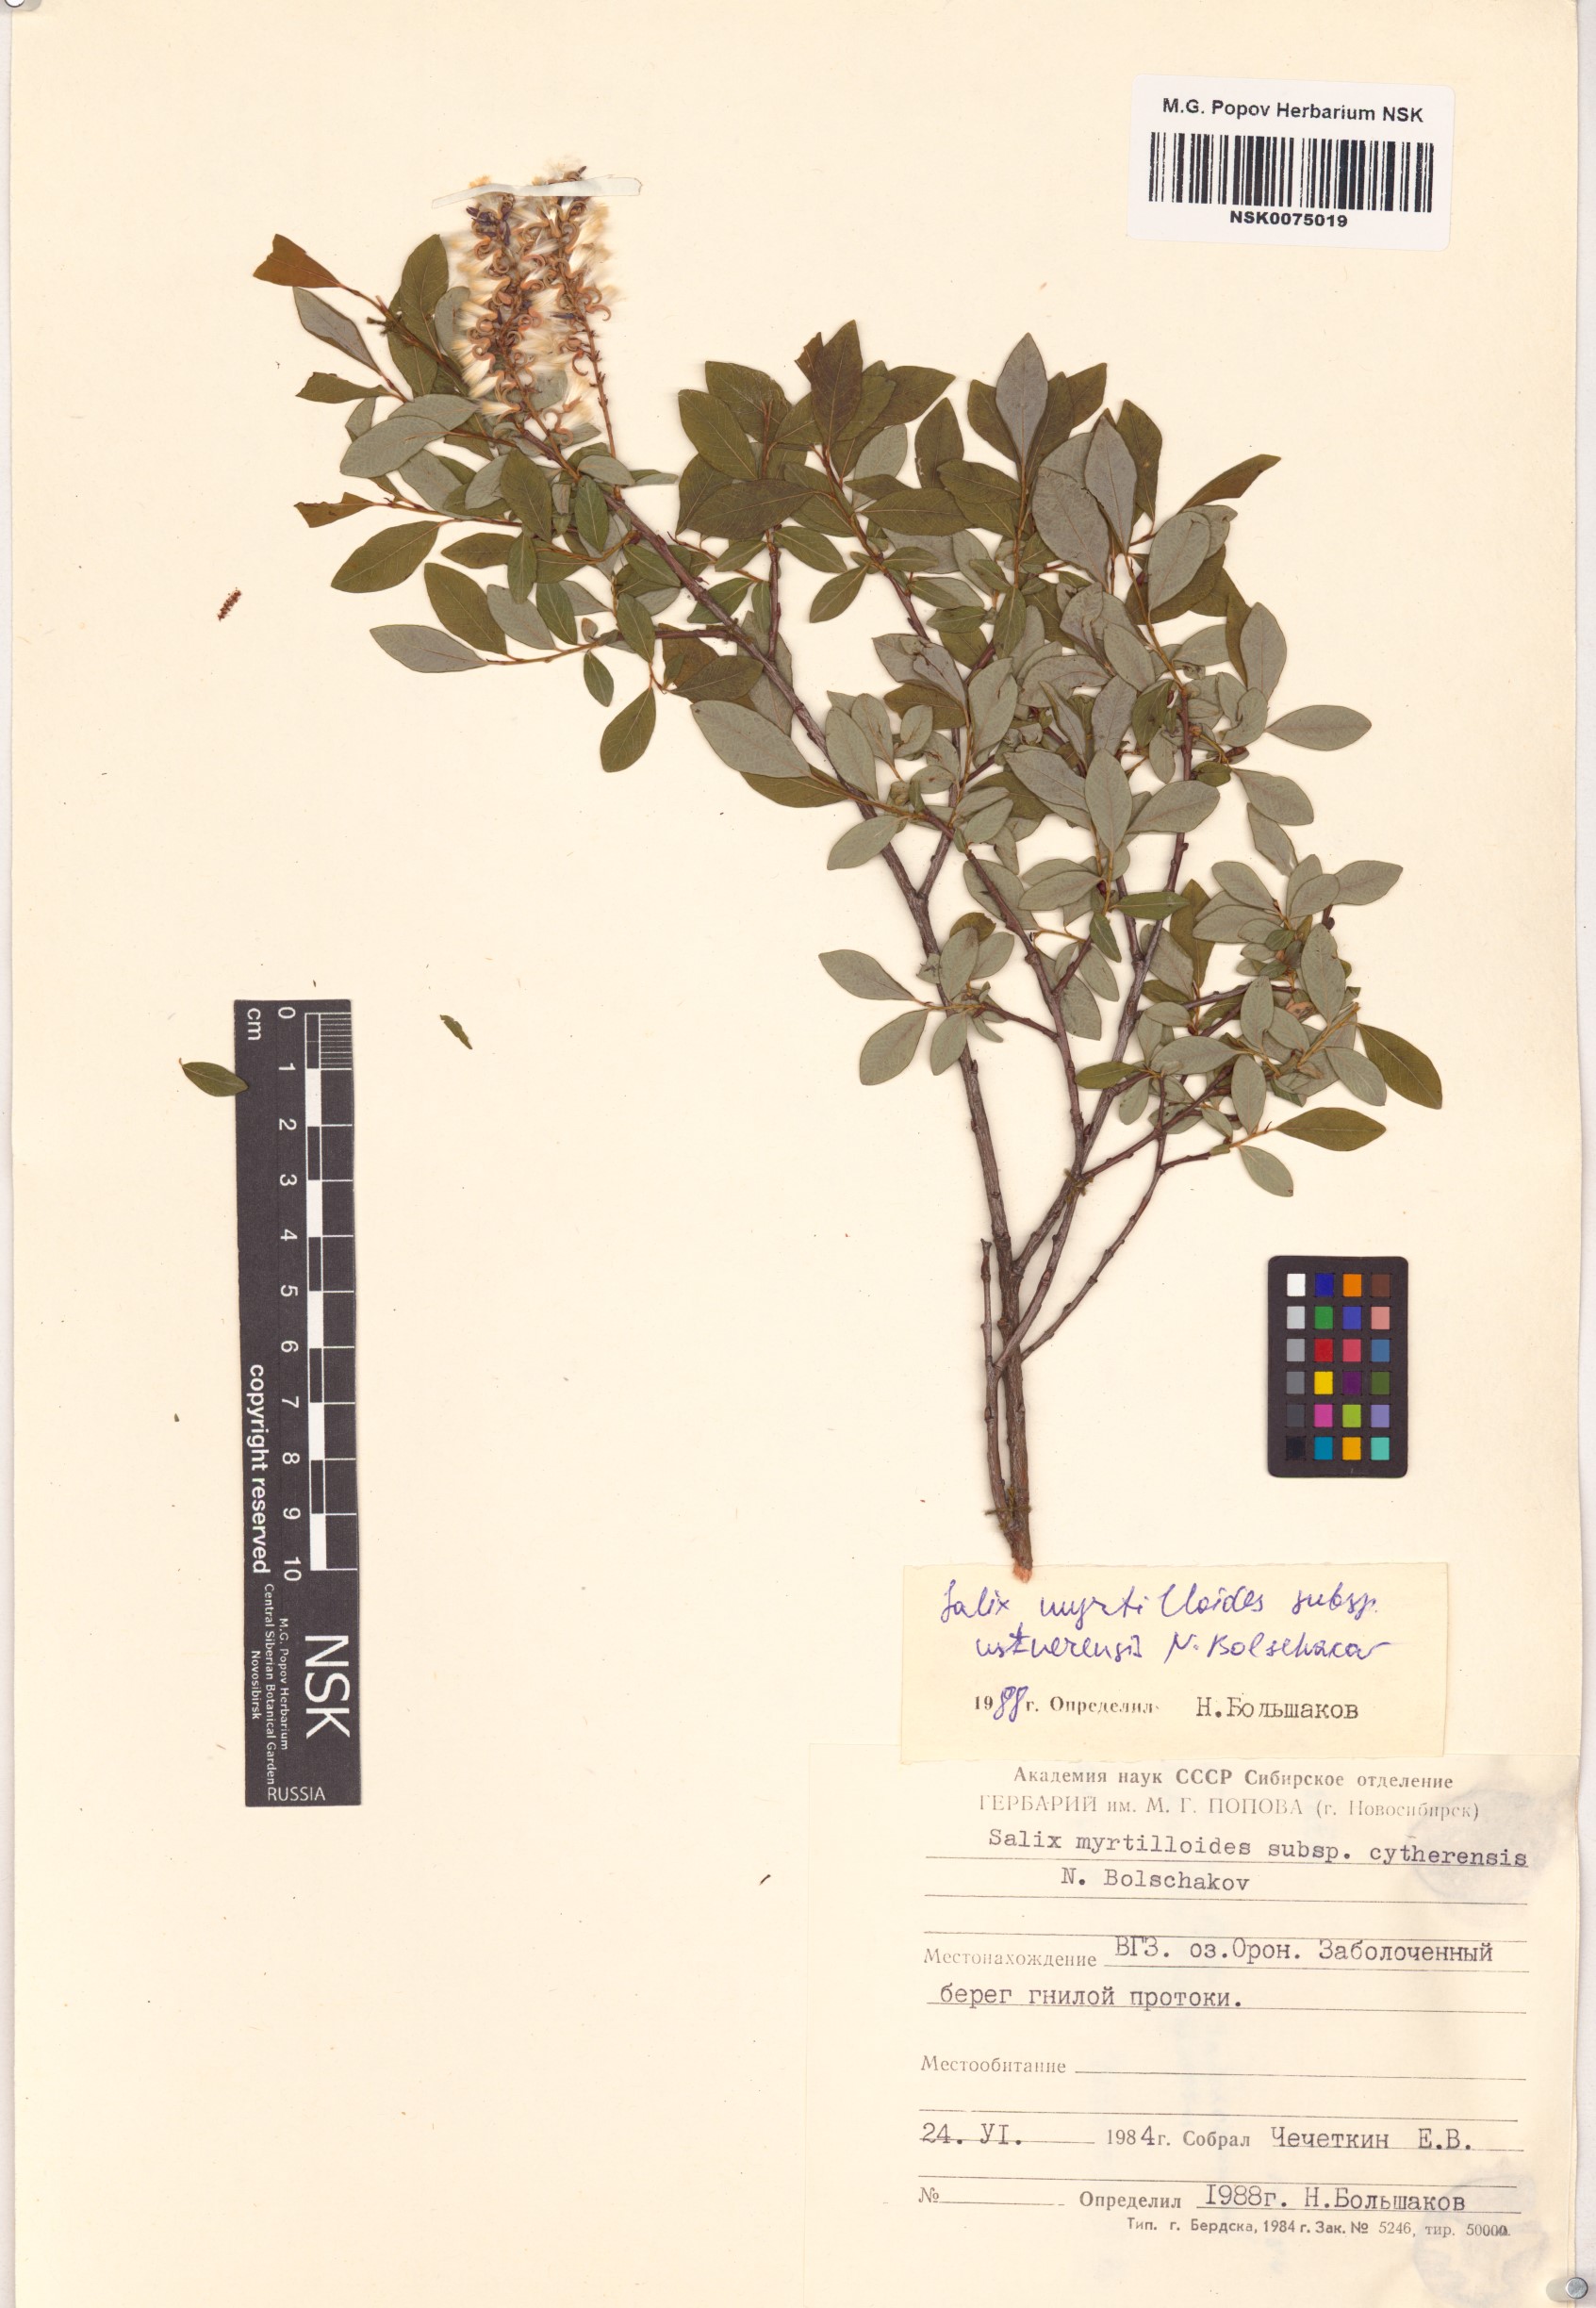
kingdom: Plantae
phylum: Tracheophyta
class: Magnoliopsida
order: Malpighiales
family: Salicaceae
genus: Salix
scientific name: Salix ustnerensis
